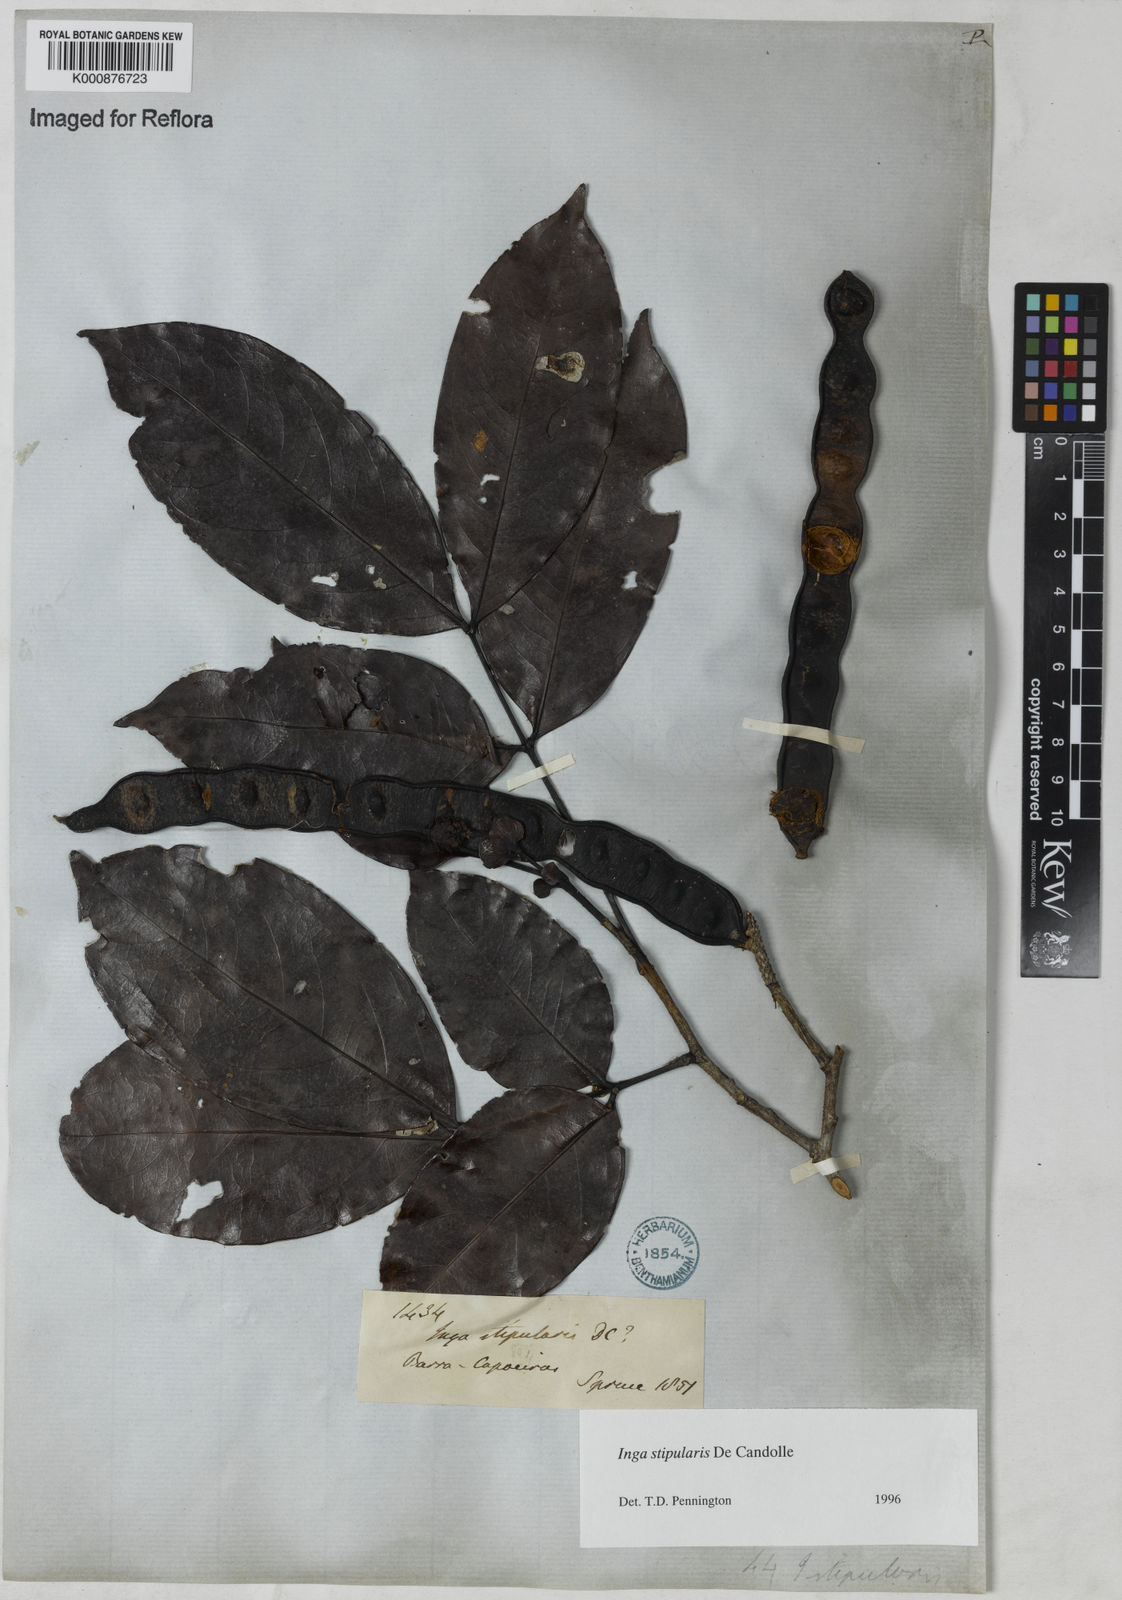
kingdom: Plantae
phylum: Tracheophyta
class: Magnoliopsida
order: Fabales
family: Fabaceae
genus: Inga
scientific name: Inga stipularis
